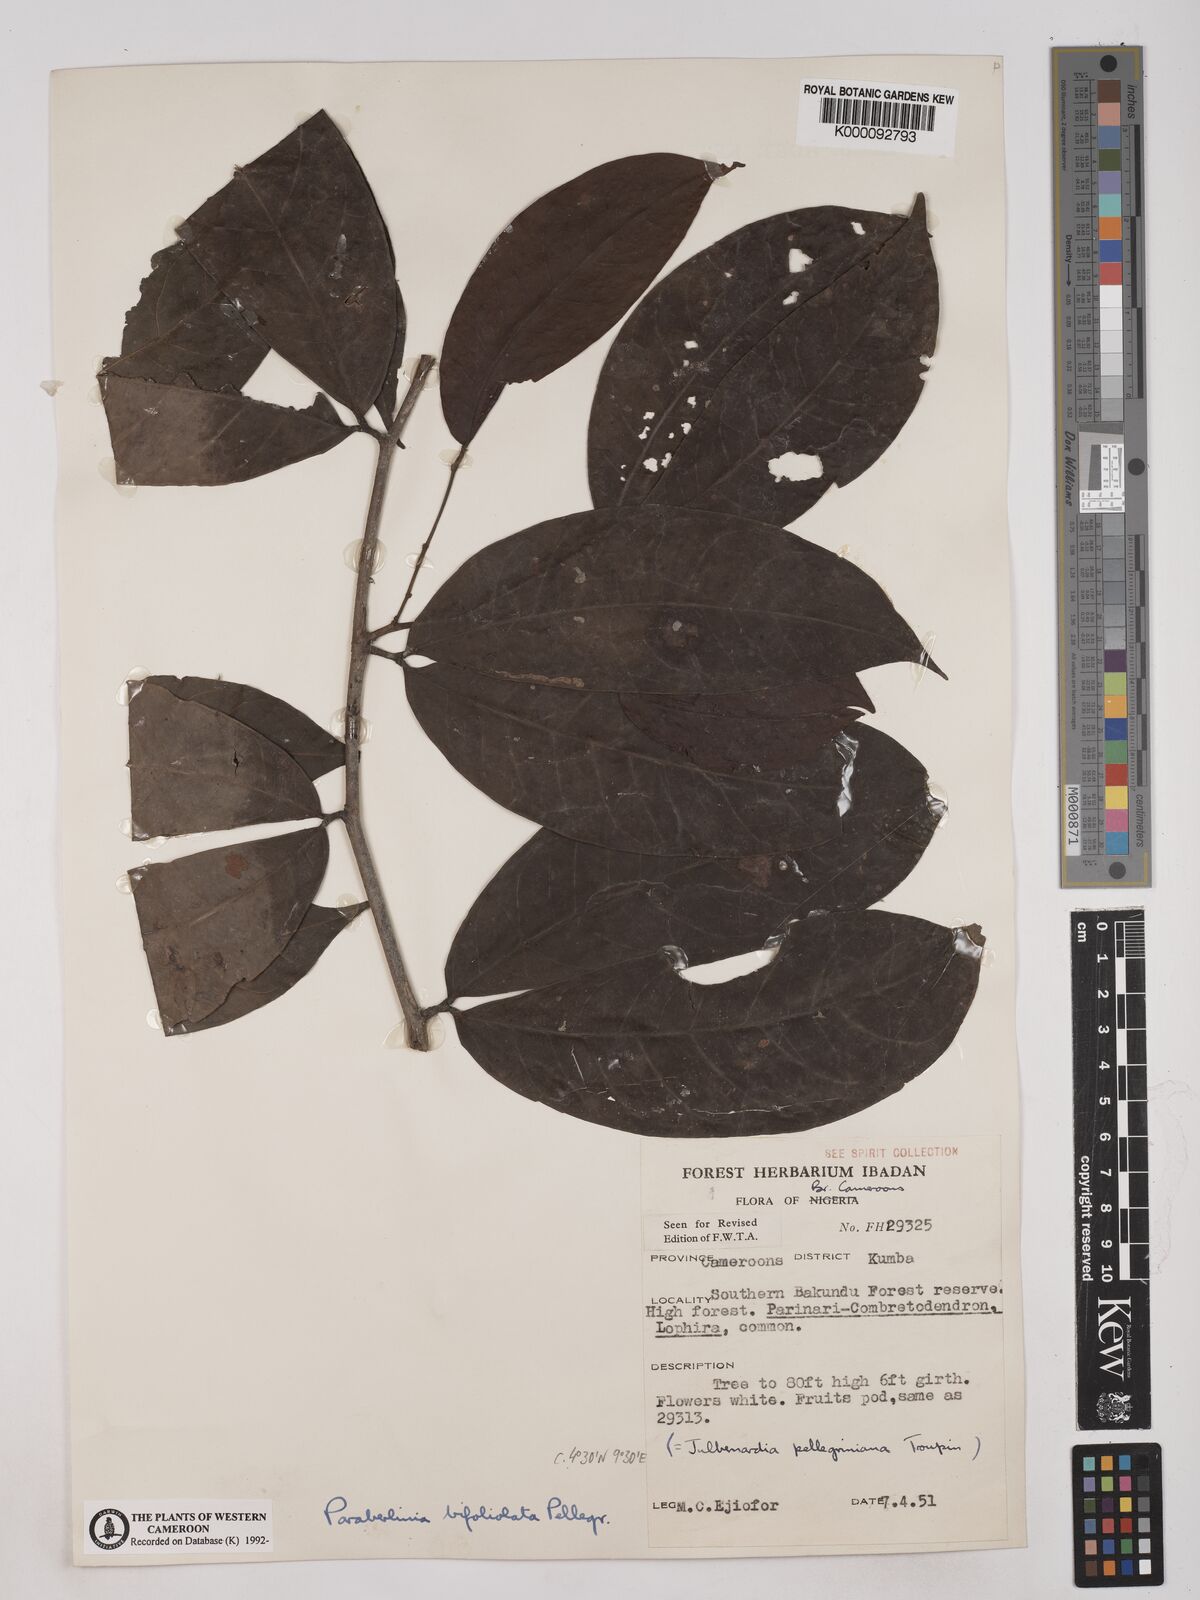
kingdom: Plantae
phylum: Tracheophyta
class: Magnoliopsida
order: Fabales
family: Fabaceae
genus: Julbernardia
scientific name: Julbernardia pellegriniana
